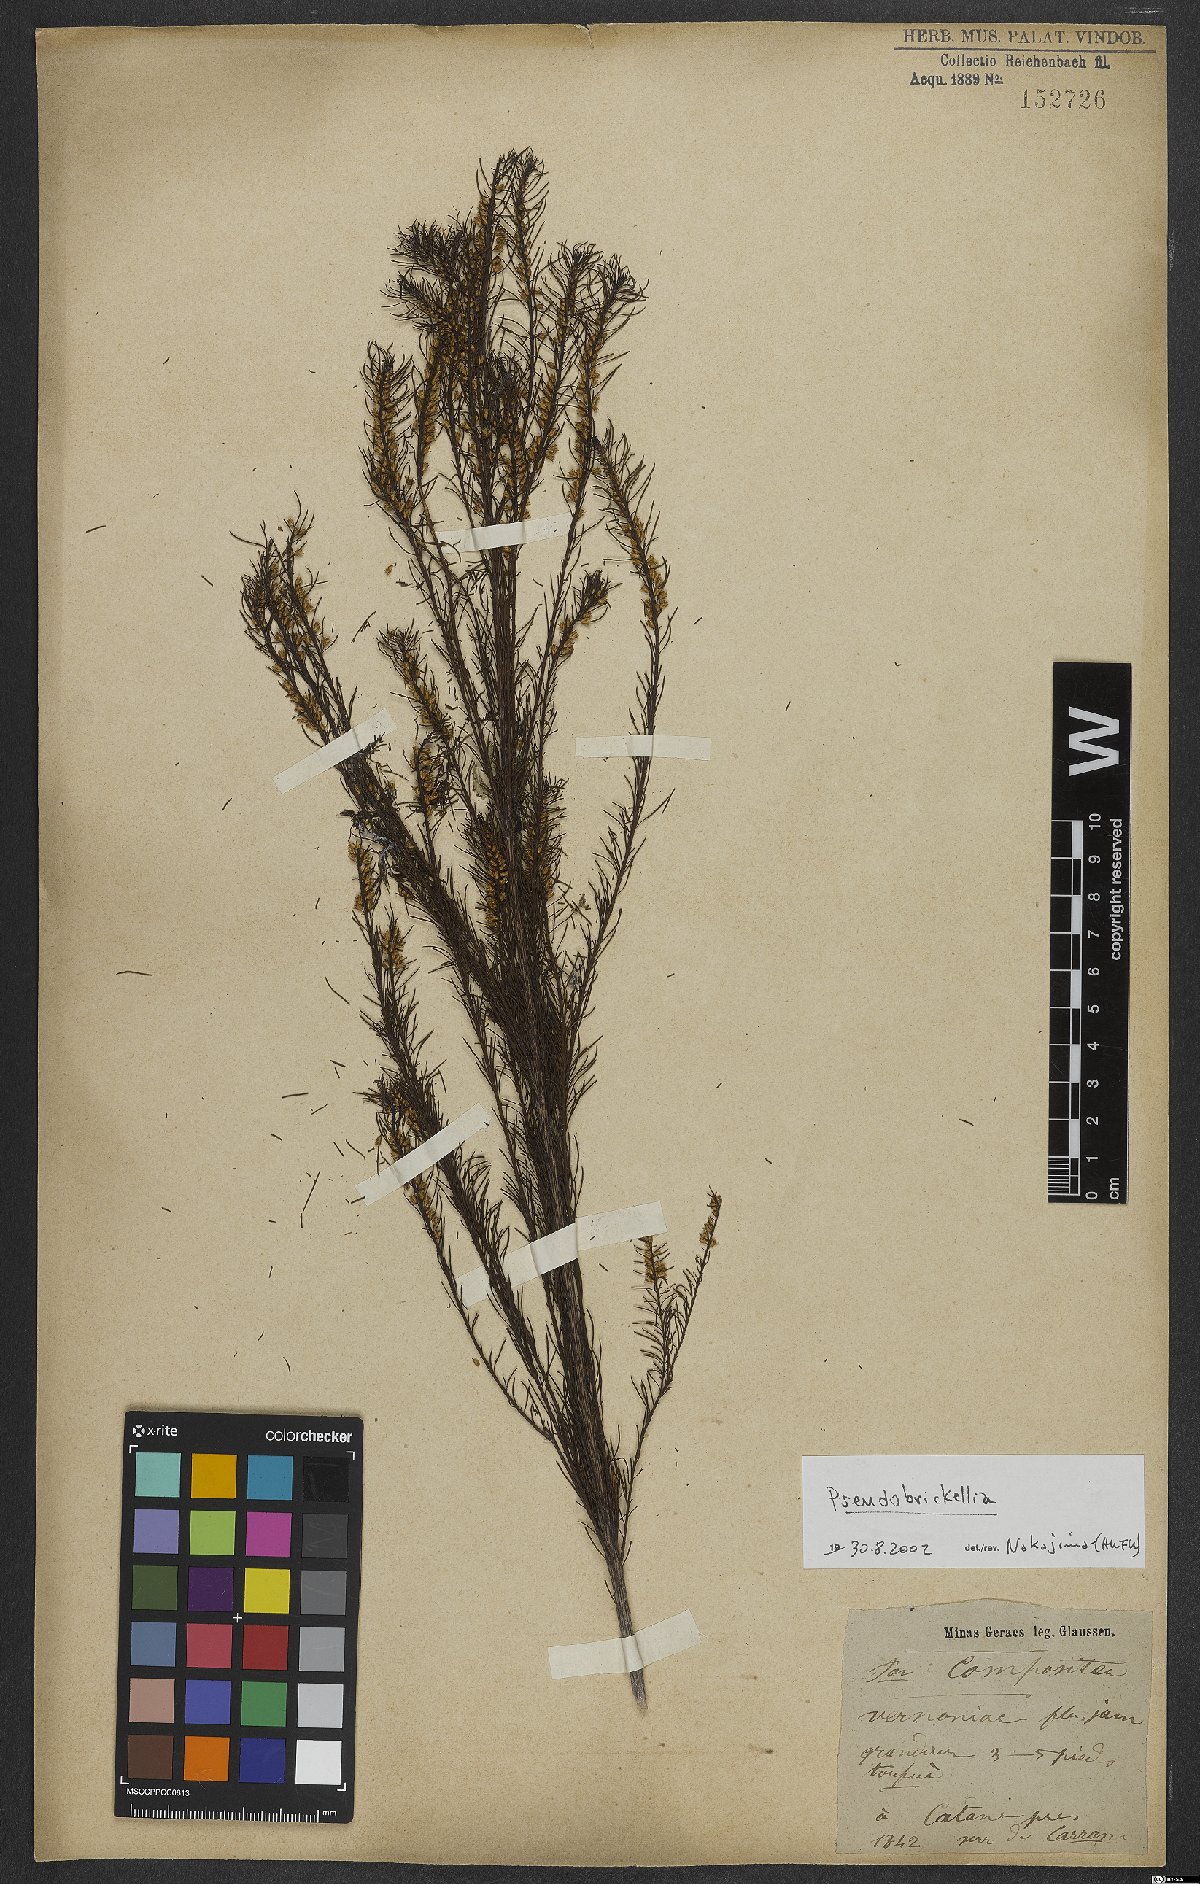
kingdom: Plantae
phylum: Tracheophyta
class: Magnoliopsida
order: Asterales
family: Asteraceae
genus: Pseudobrickellia
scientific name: Pseudobrickellia
